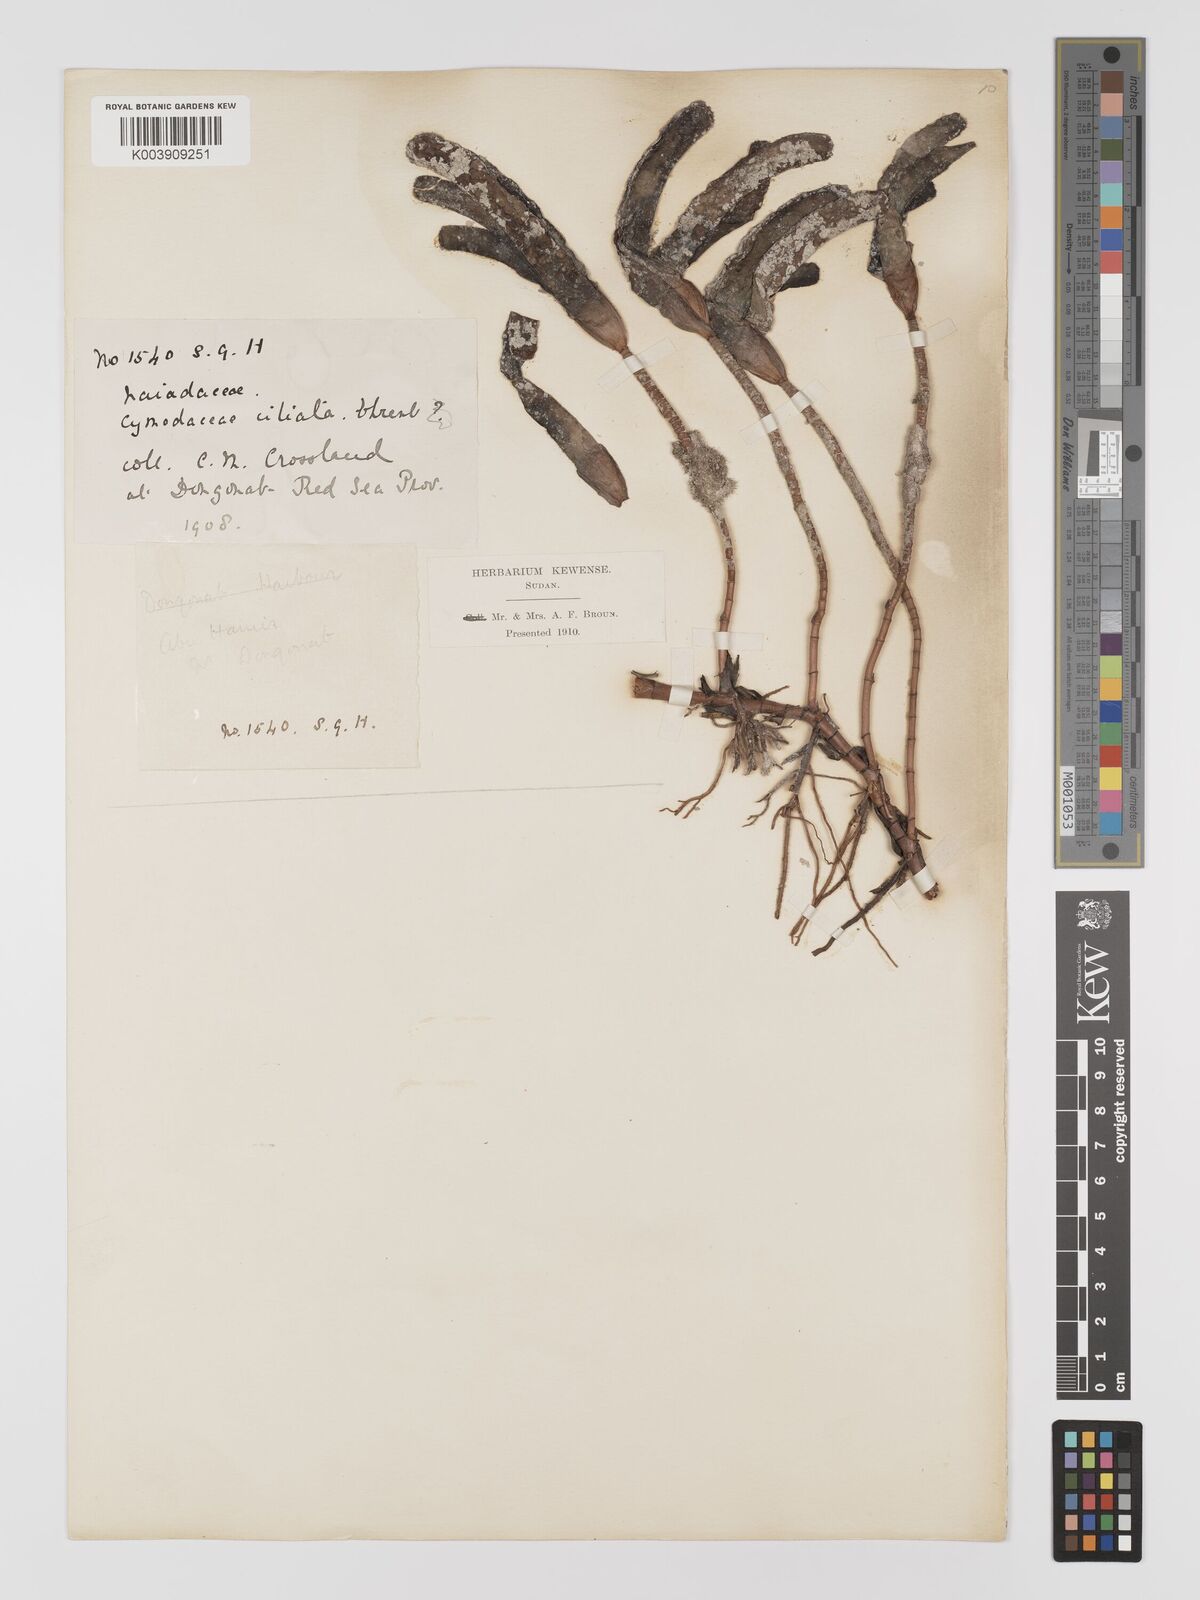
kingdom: Plantae
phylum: Tracheophyta
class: Liliopsida
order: Alismatales
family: Cymodoceaceae
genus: Thalassodendron
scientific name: Thalassodendron ciliatum
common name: Species code: tc
